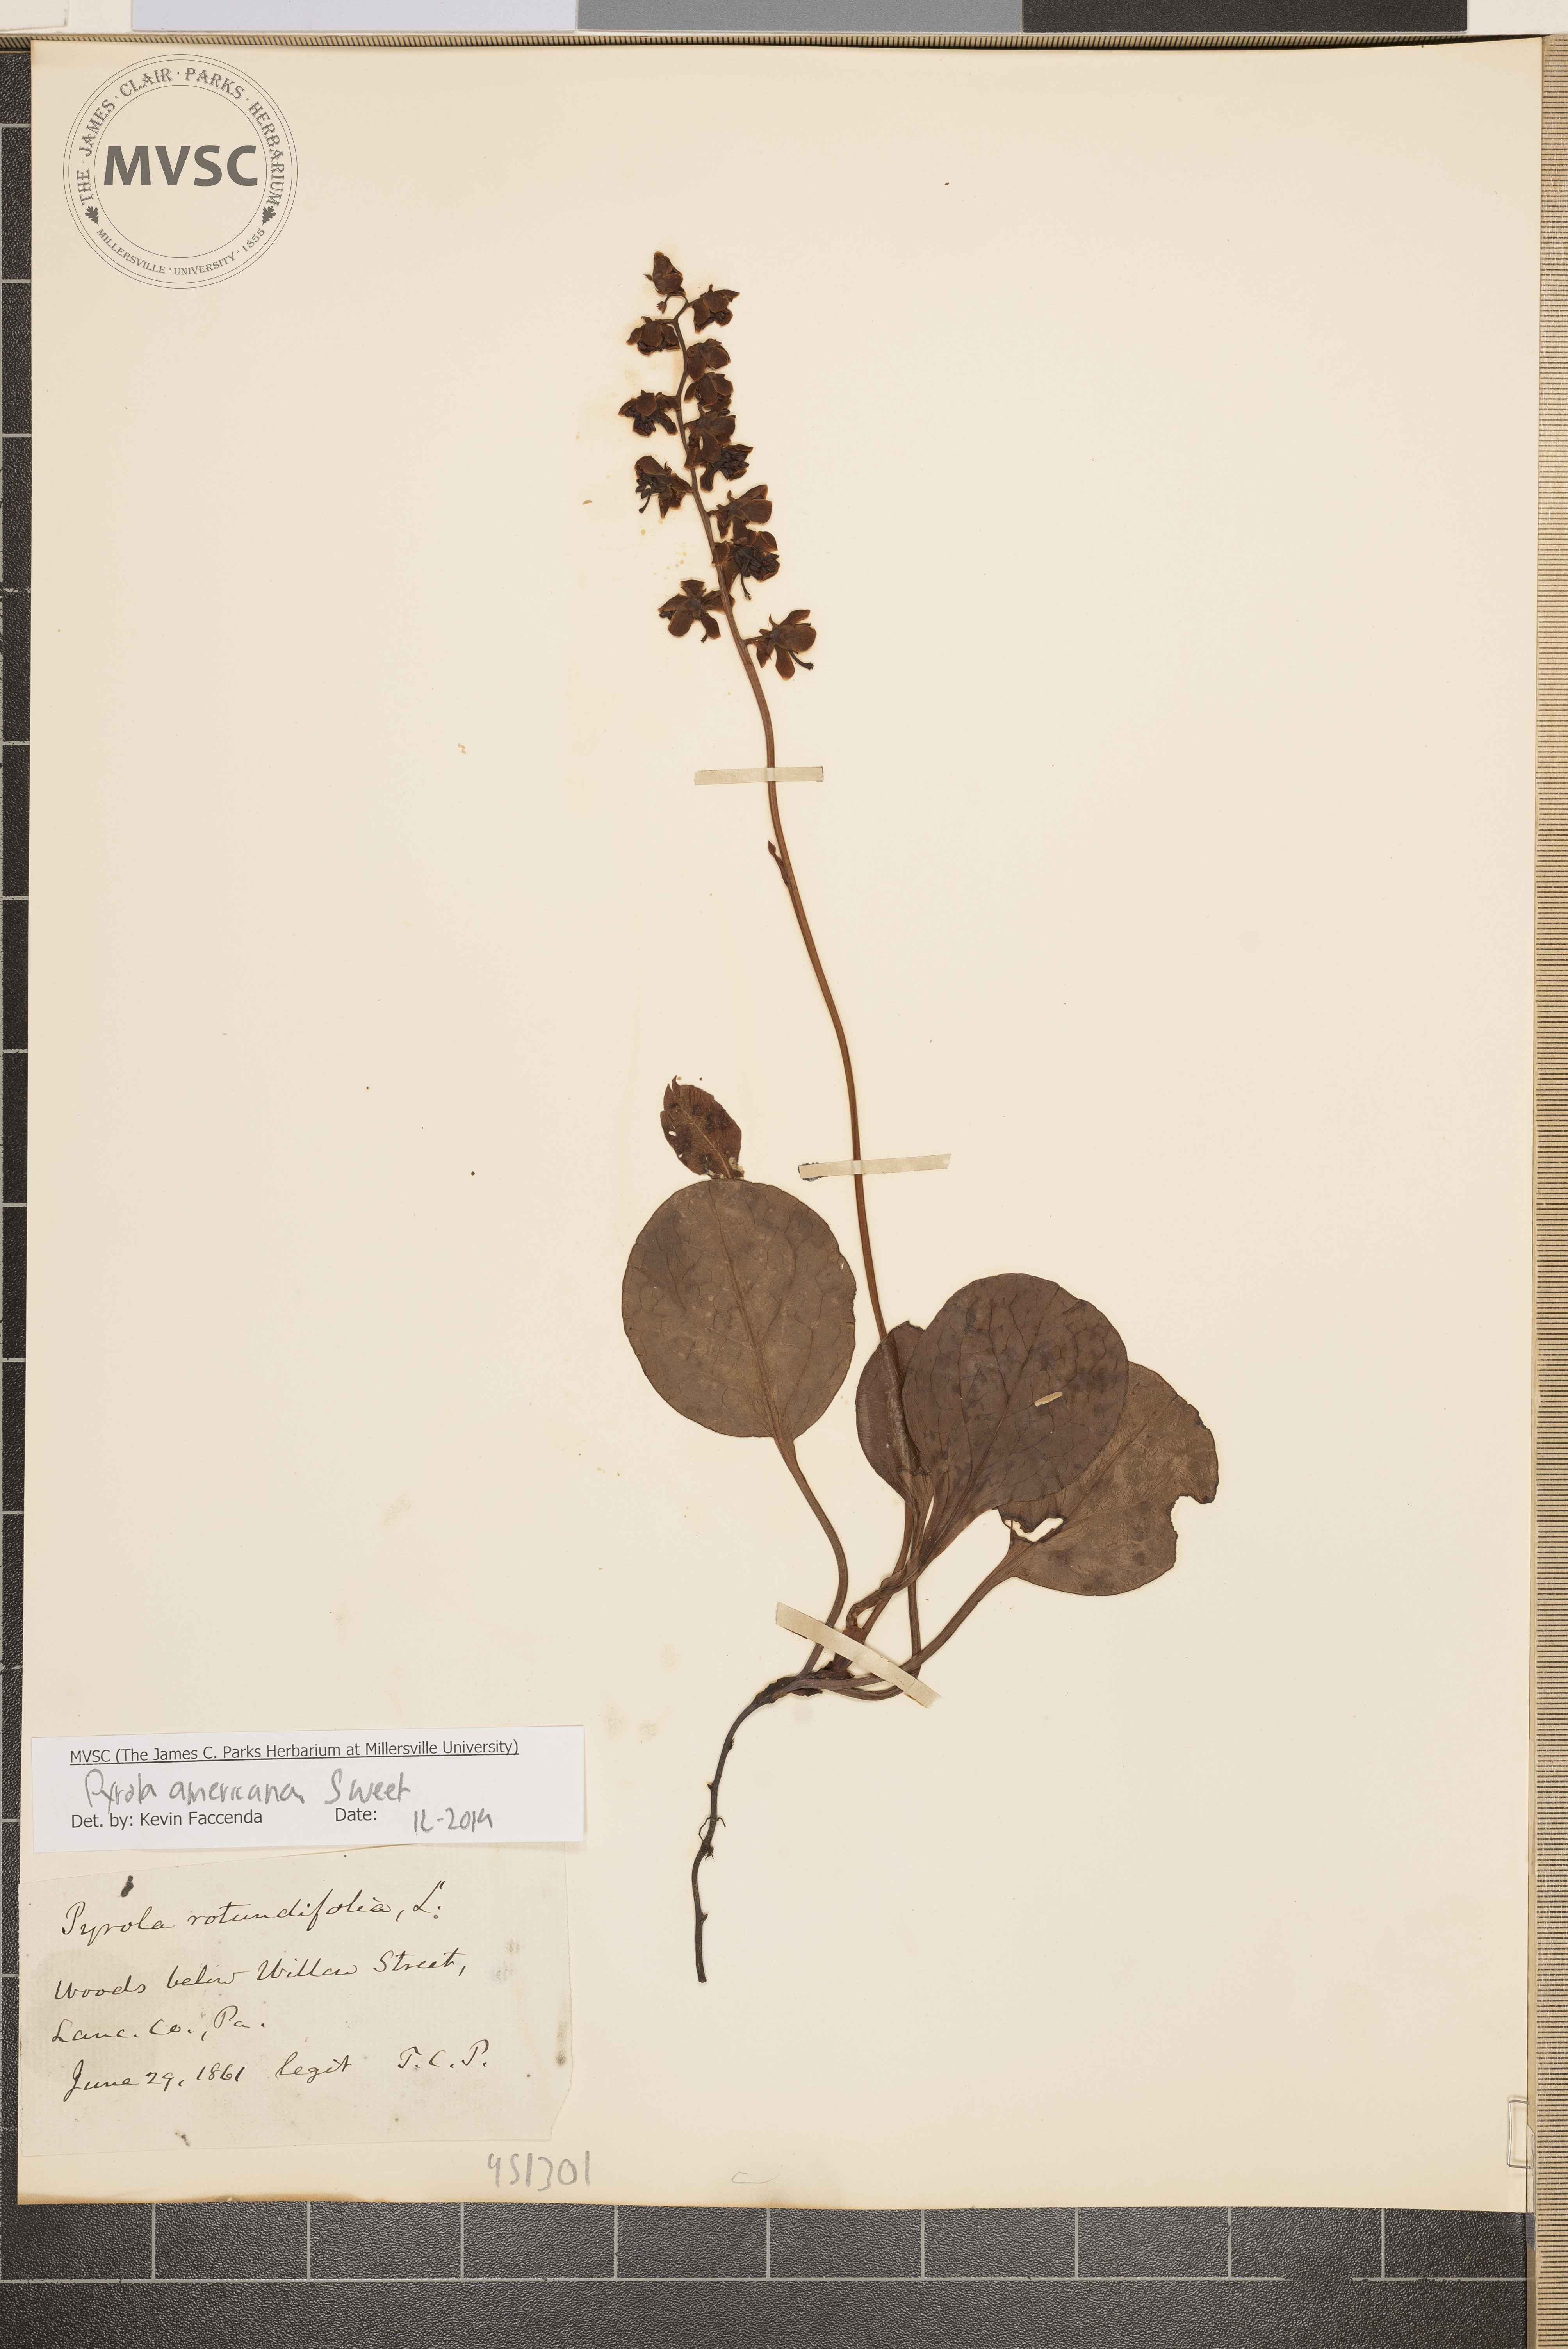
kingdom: Plantae
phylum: Tracheophyta
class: Magnoliopsida
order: Ericales
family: Ericaceae
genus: Pyrola
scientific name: Pyrola americana
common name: American wintergreen
